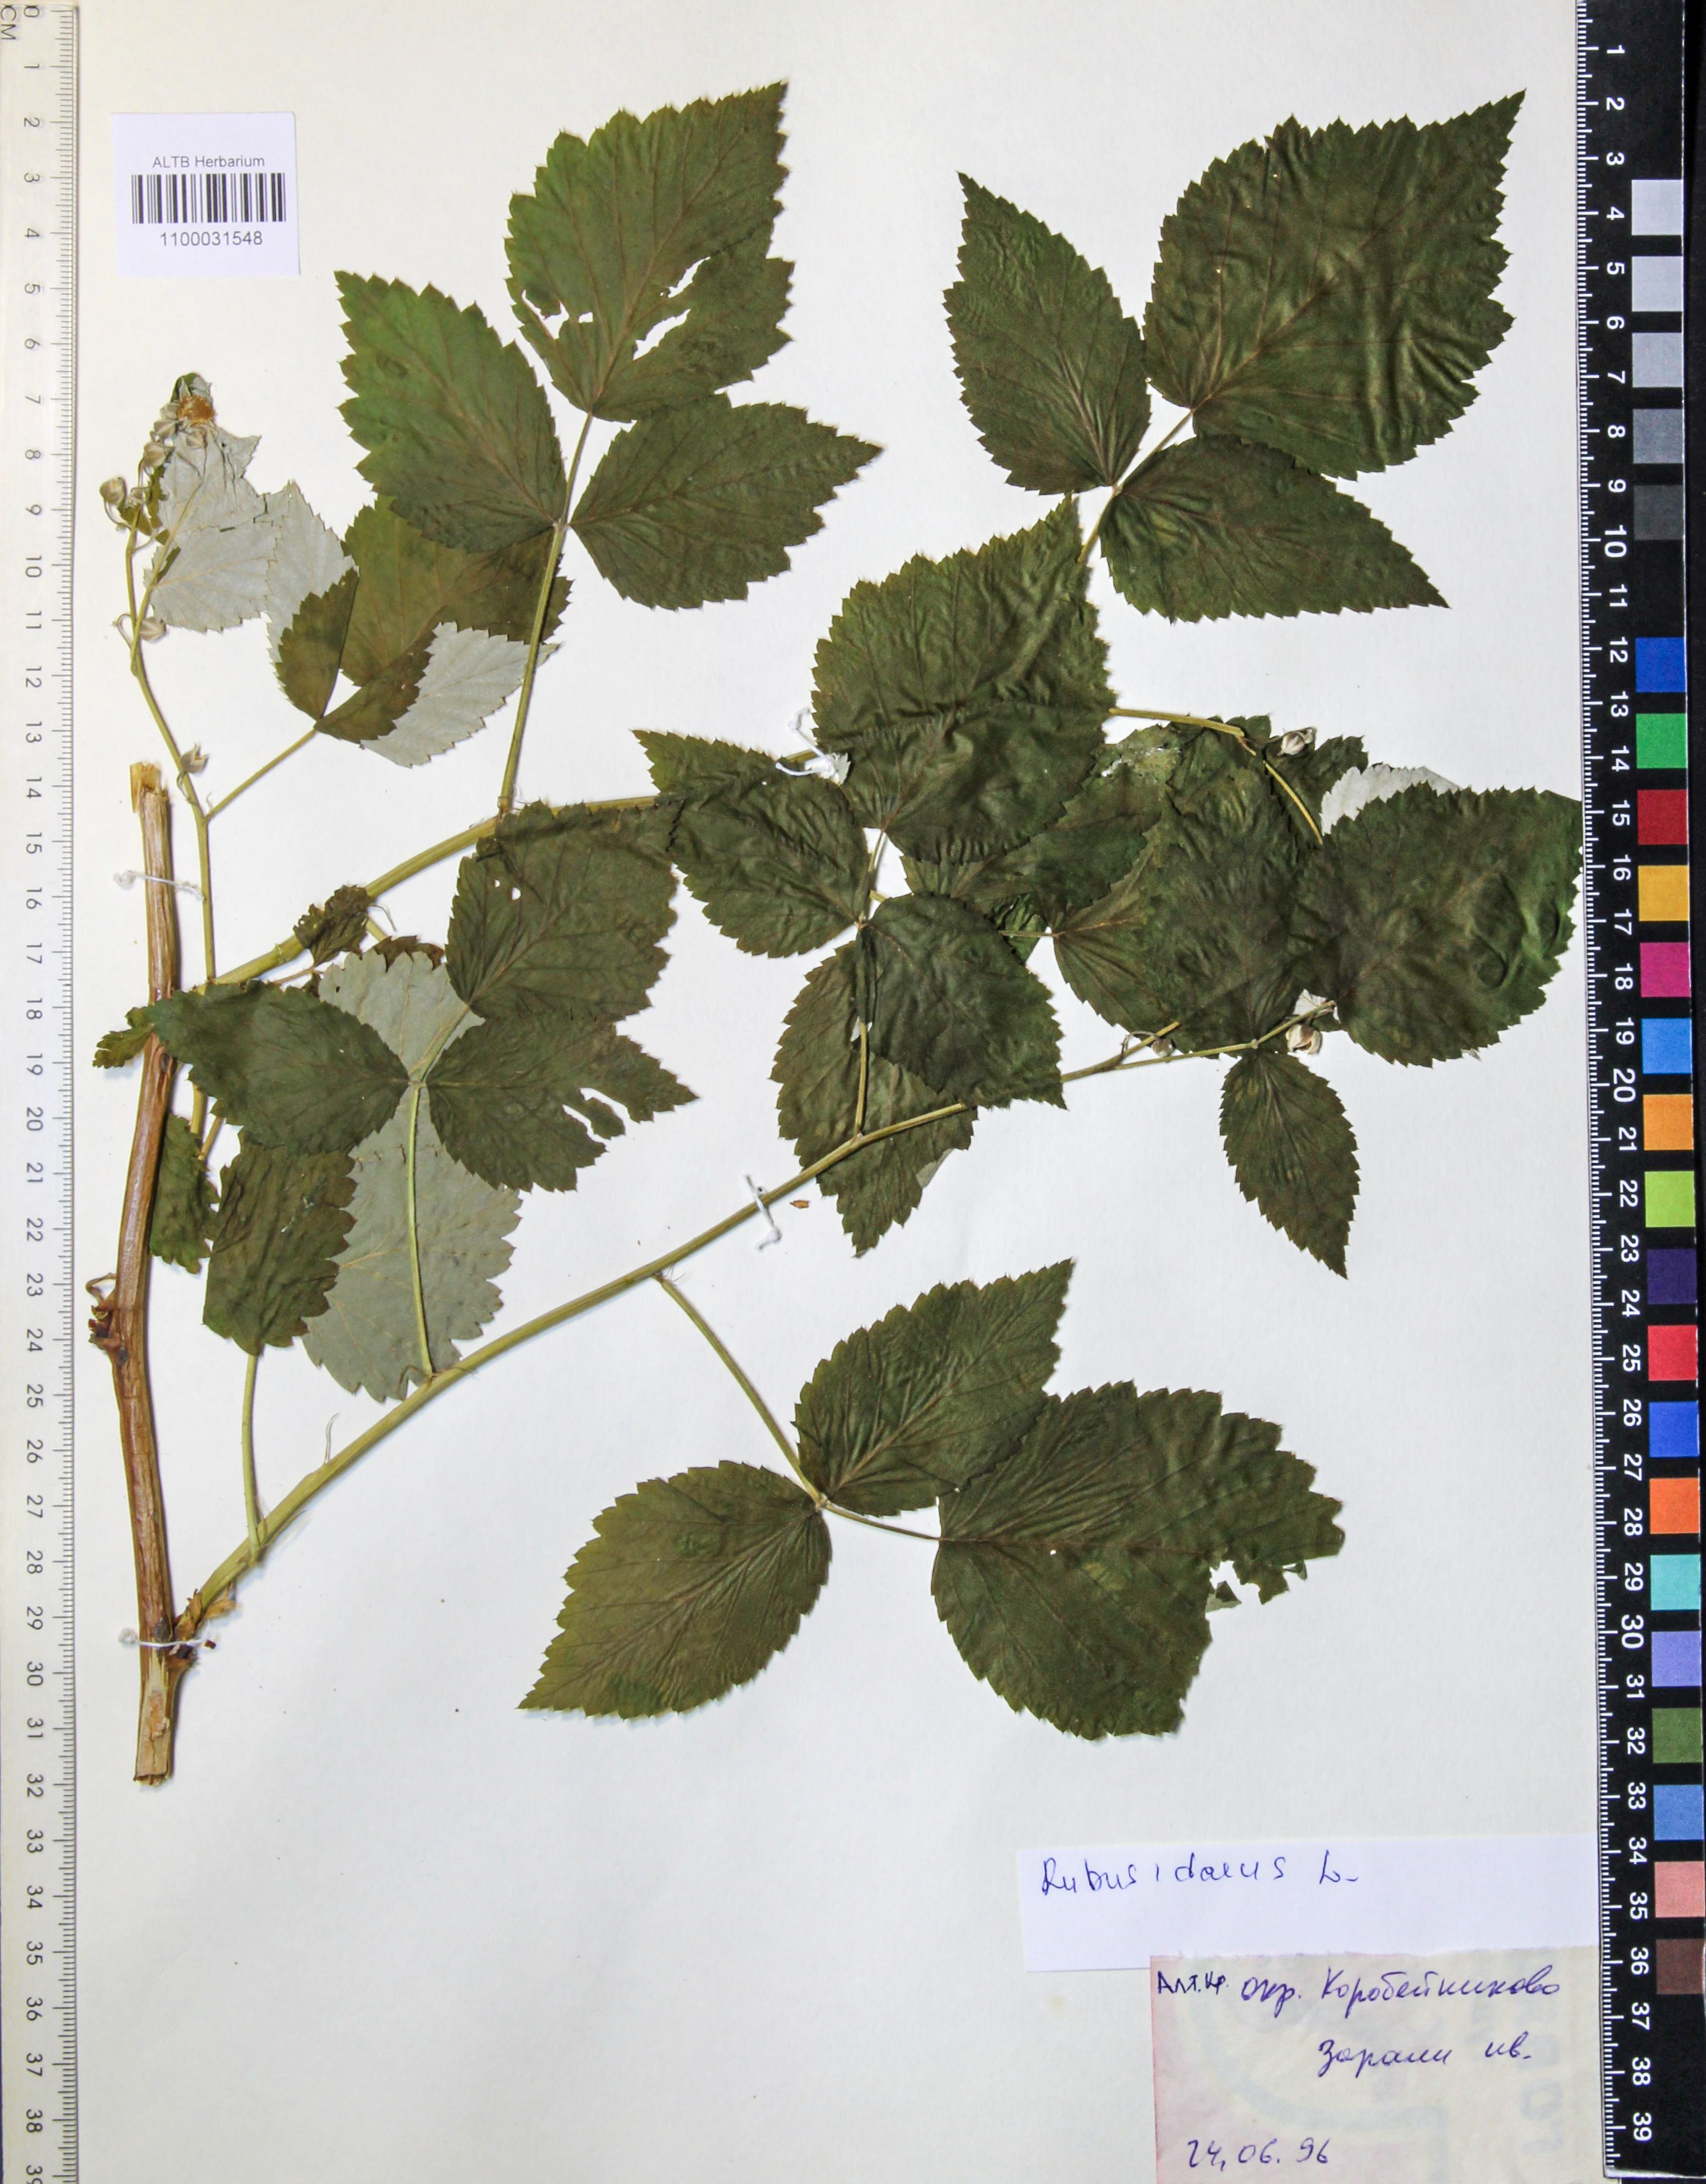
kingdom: Plantae
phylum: Tracheophyta
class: Magnoliopsida
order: Rosales
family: Rosaceae
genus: Rubus
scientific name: Rubus idaeus
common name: Raspberry
